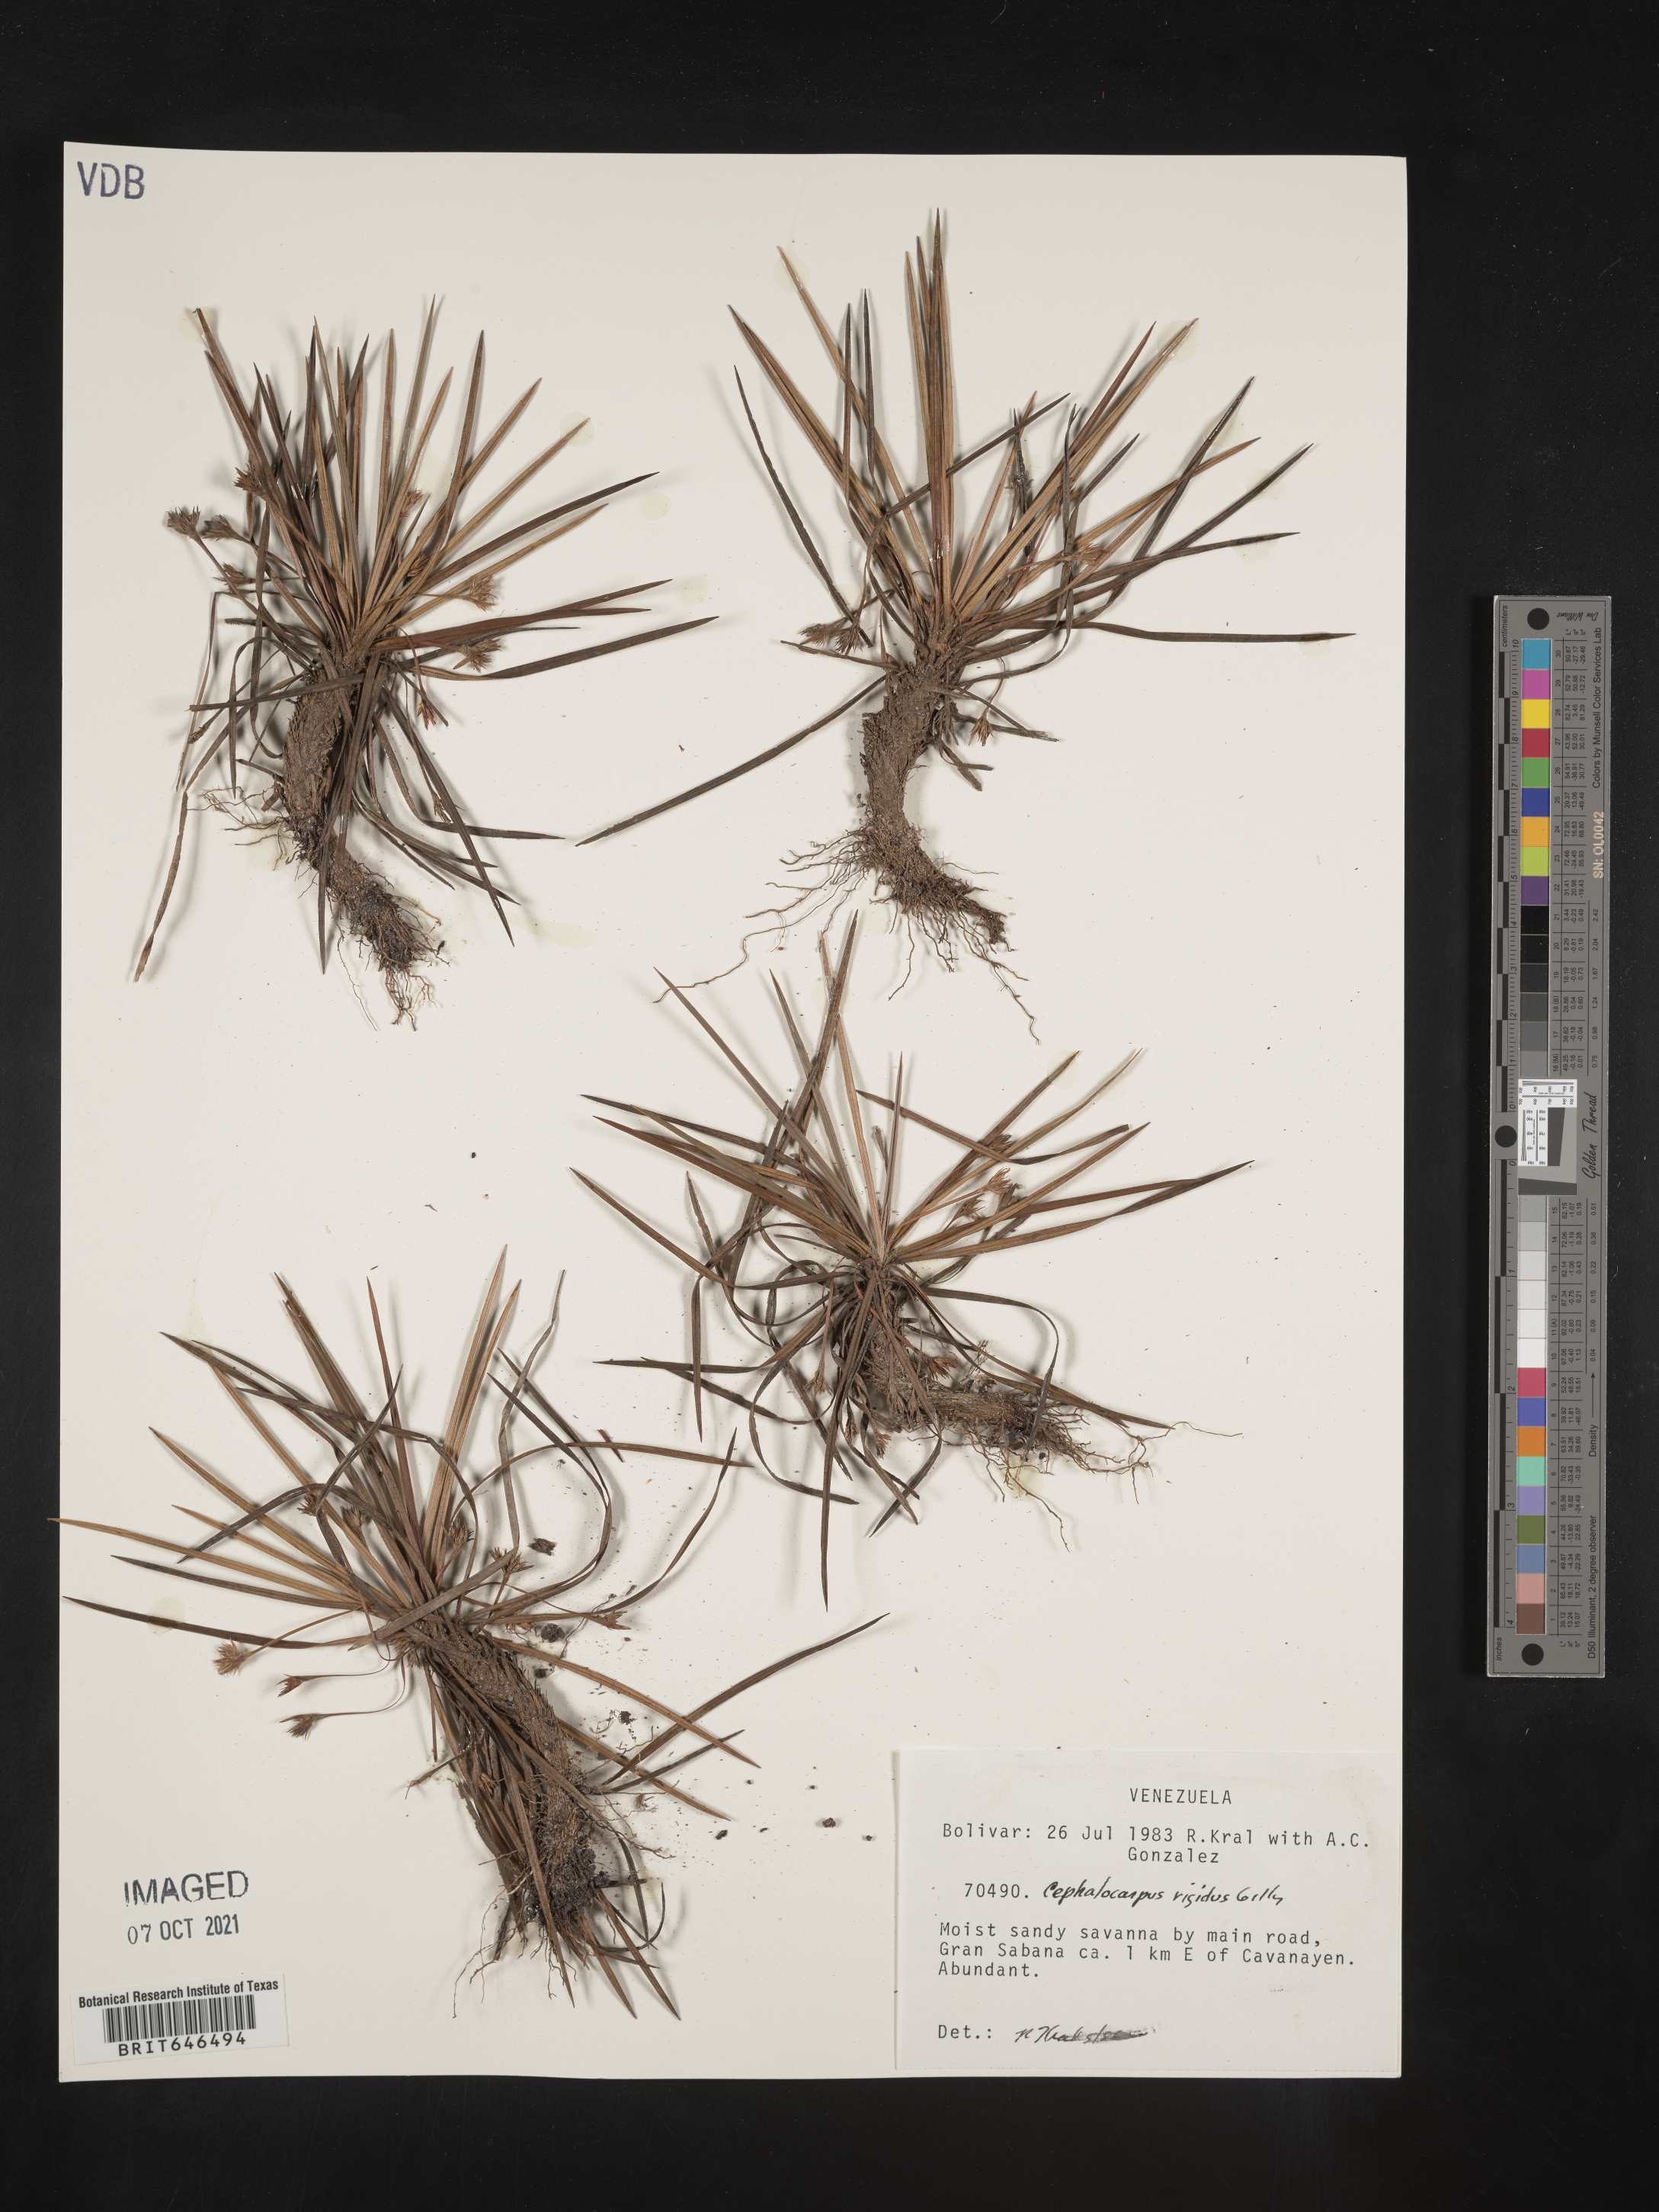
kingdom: Plantae
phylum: Tracheophyta
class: Liliopsida
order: Poales
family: Cyperaceae
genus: Cephalocarpus
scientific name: Cephalocarpus rigidus
